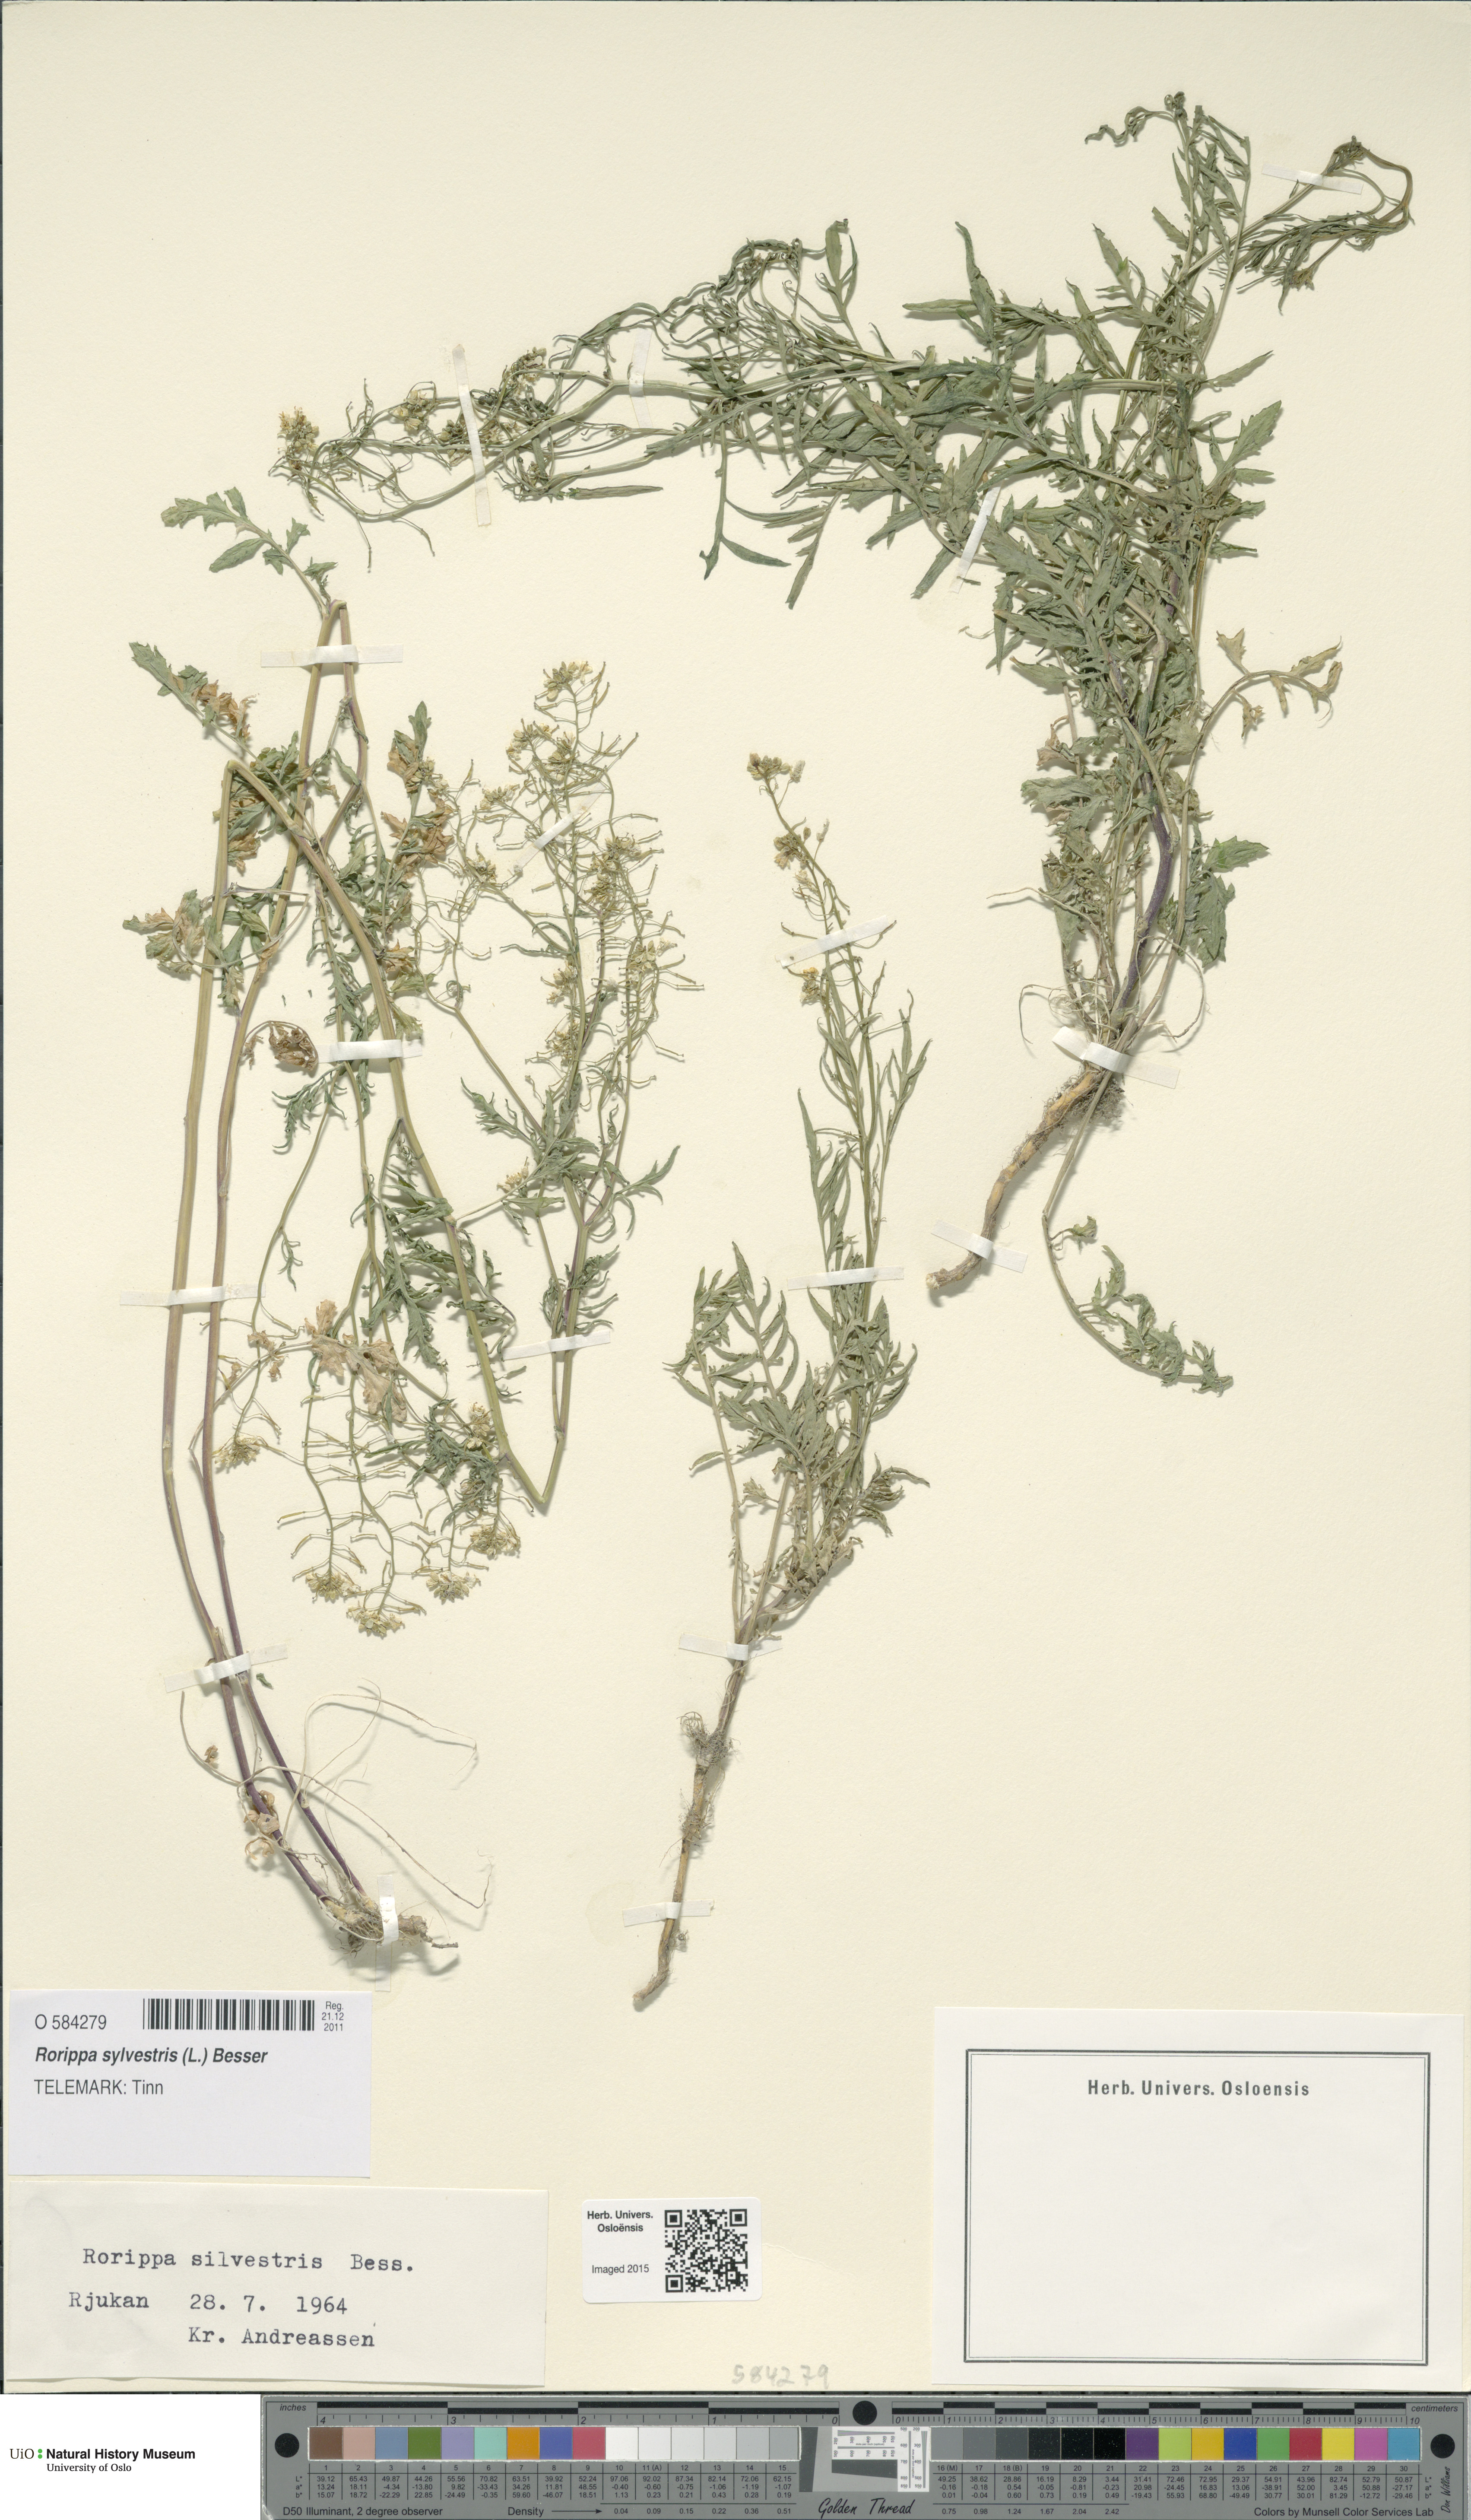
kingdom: Plantae
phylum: Tracheophyta
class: Magnoliopsida
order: Brassicales
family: Brassicaceae
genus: Rorippa
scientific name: Rorippa sylvestris
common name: Creeping yellowcress
